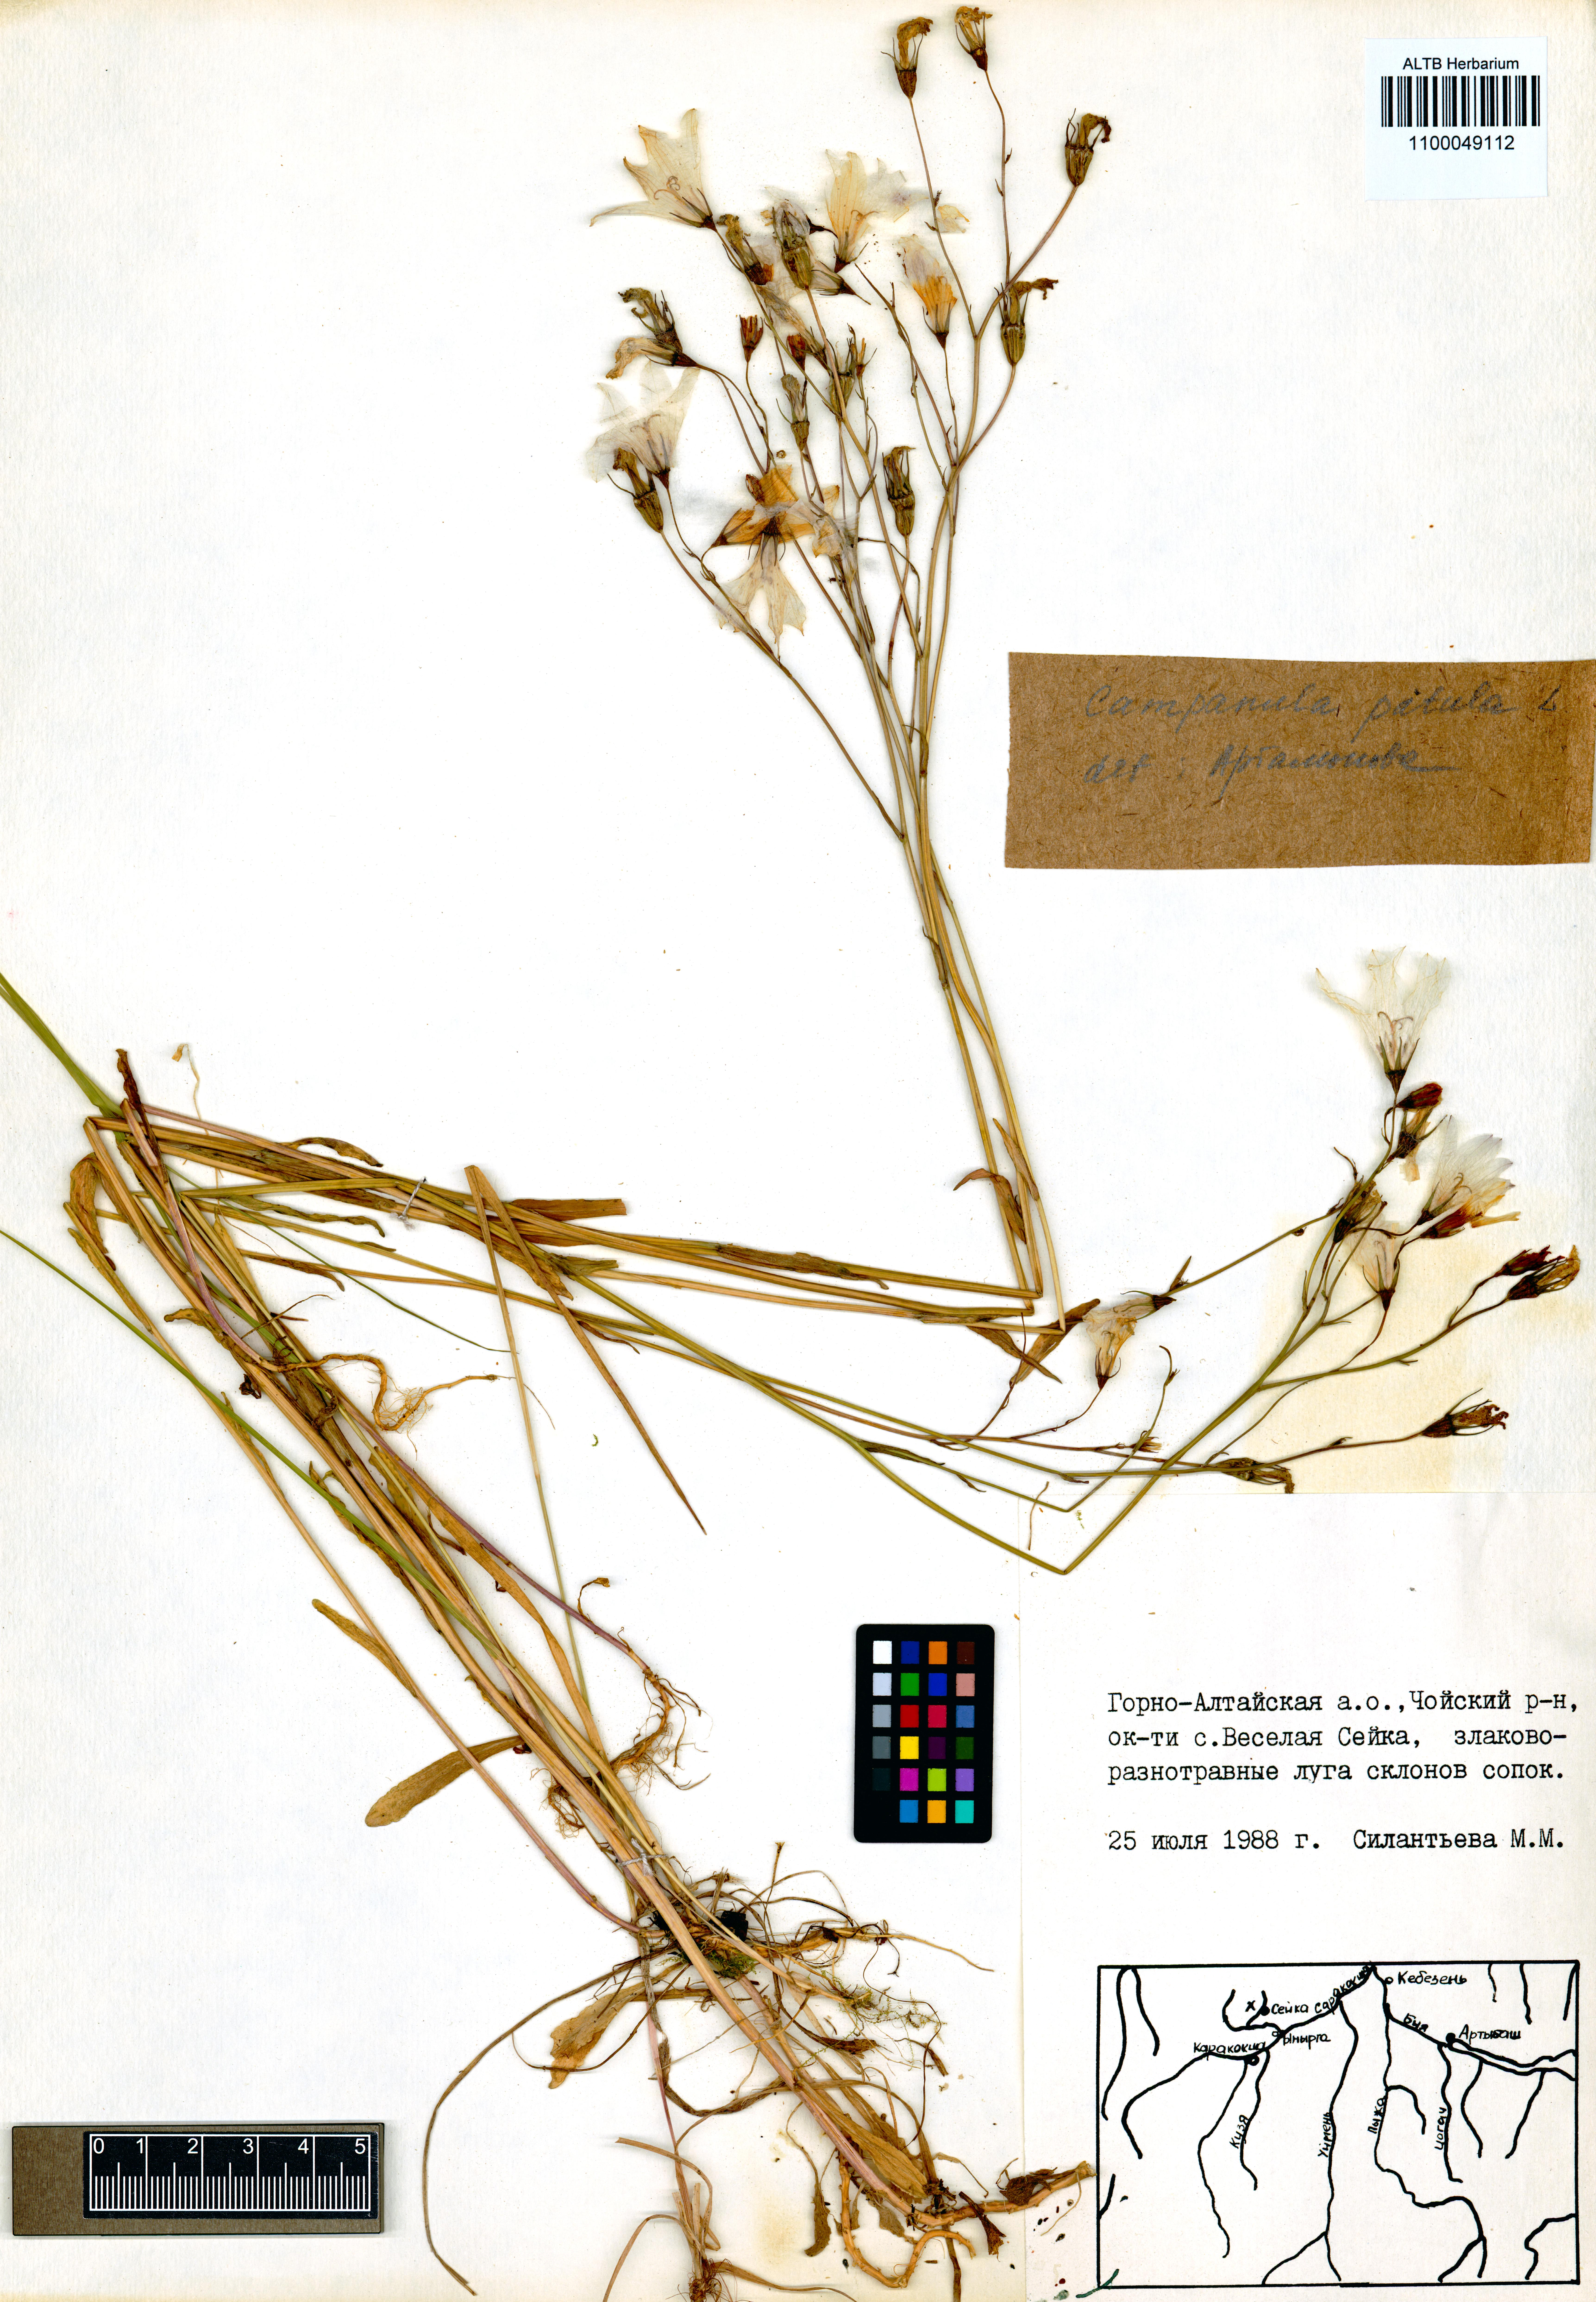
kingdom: Plantae
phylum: Tracheophyta
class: Magnoliopsida
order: Asterales
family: Campanulaceae
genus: Campanula
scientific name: Campanula patula
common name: Spreading bellflower
